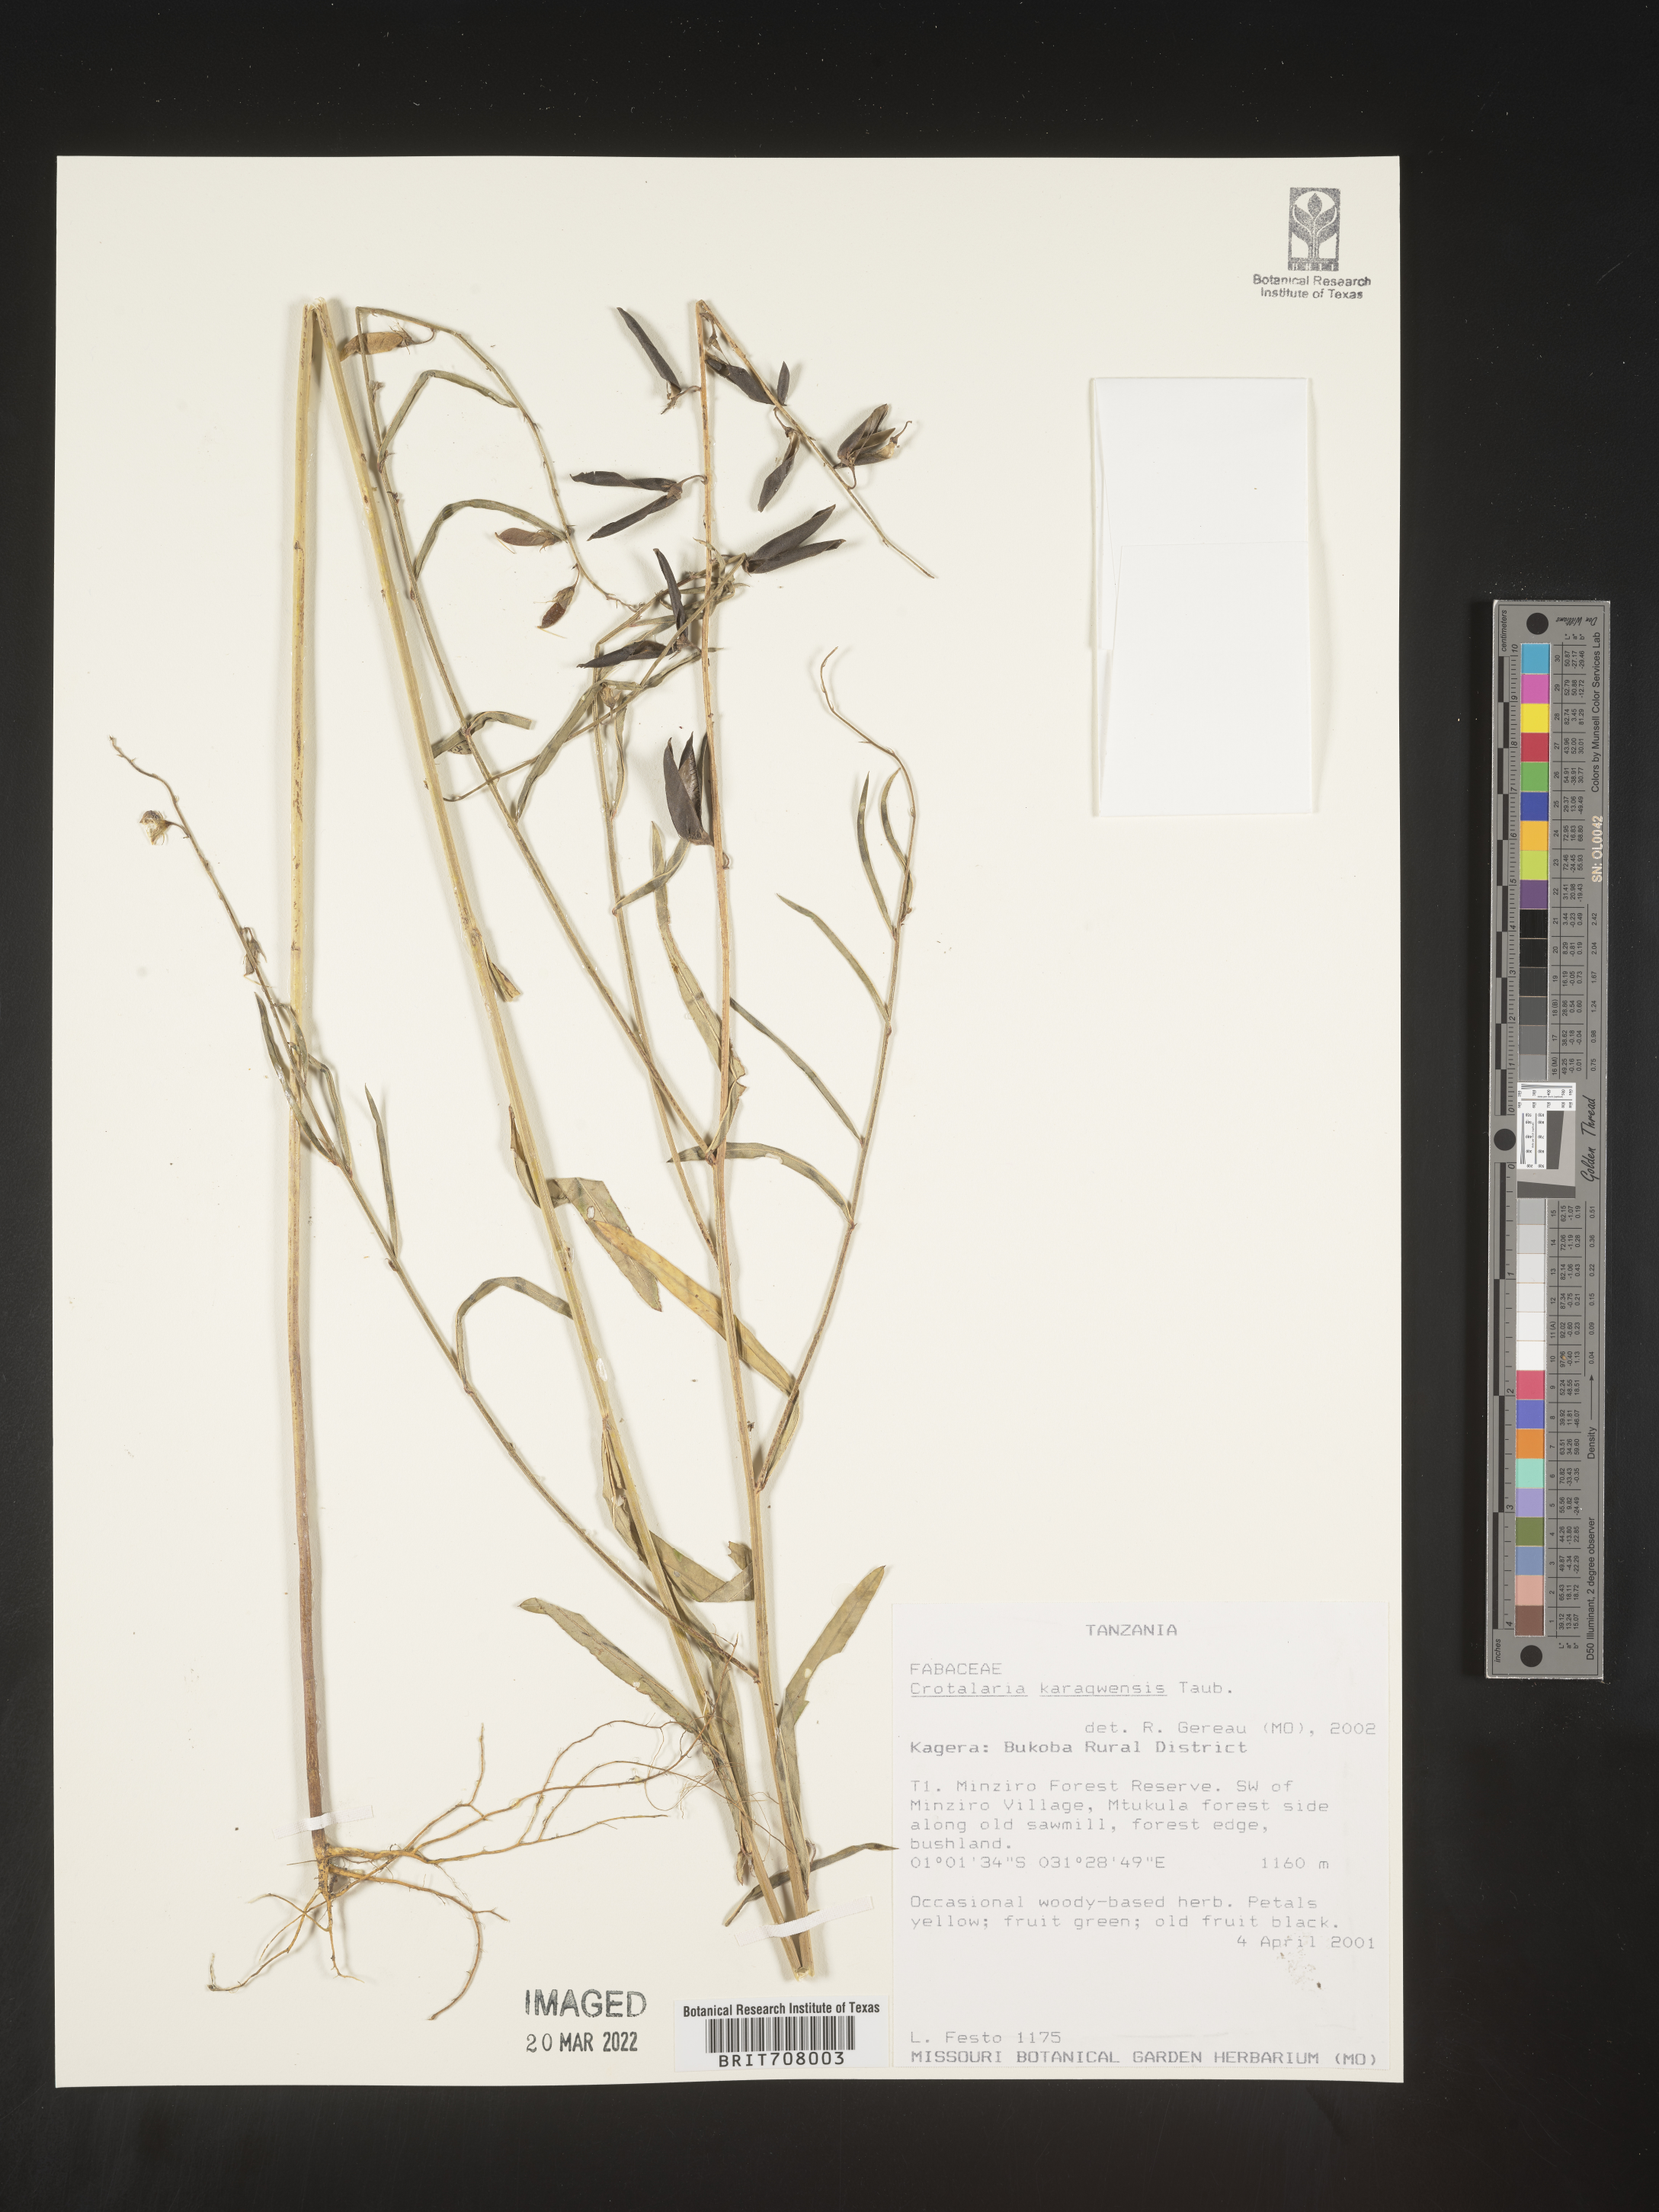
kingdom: Plantae
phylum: Tracheophyta
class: Magnoliopsida
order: Fabales
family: Fabaceae
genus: Crotalaria
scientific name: Crotalaria
